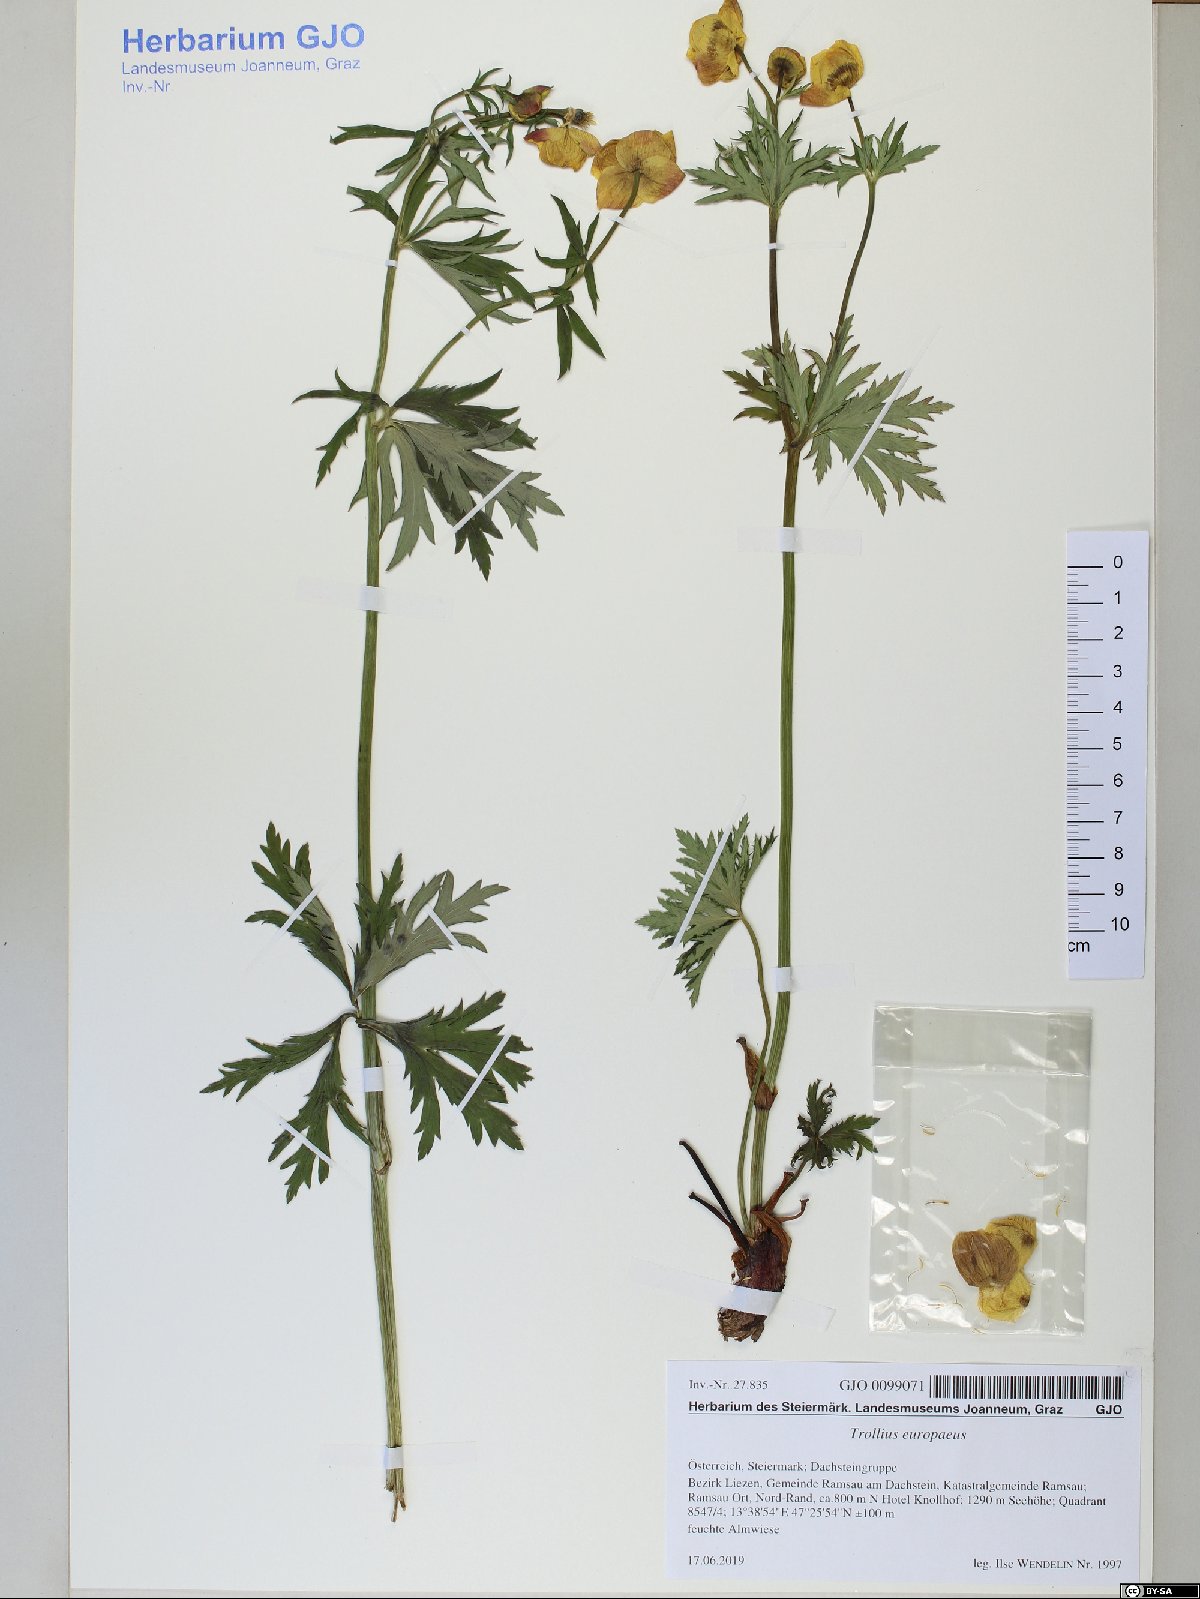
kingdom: Plantae
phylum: Tracheophyta
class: Magnoliopsida
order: Ranunculales
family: Ranunculaceae
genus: Trollius
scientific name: Trollius europaeus
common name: European globeflower
